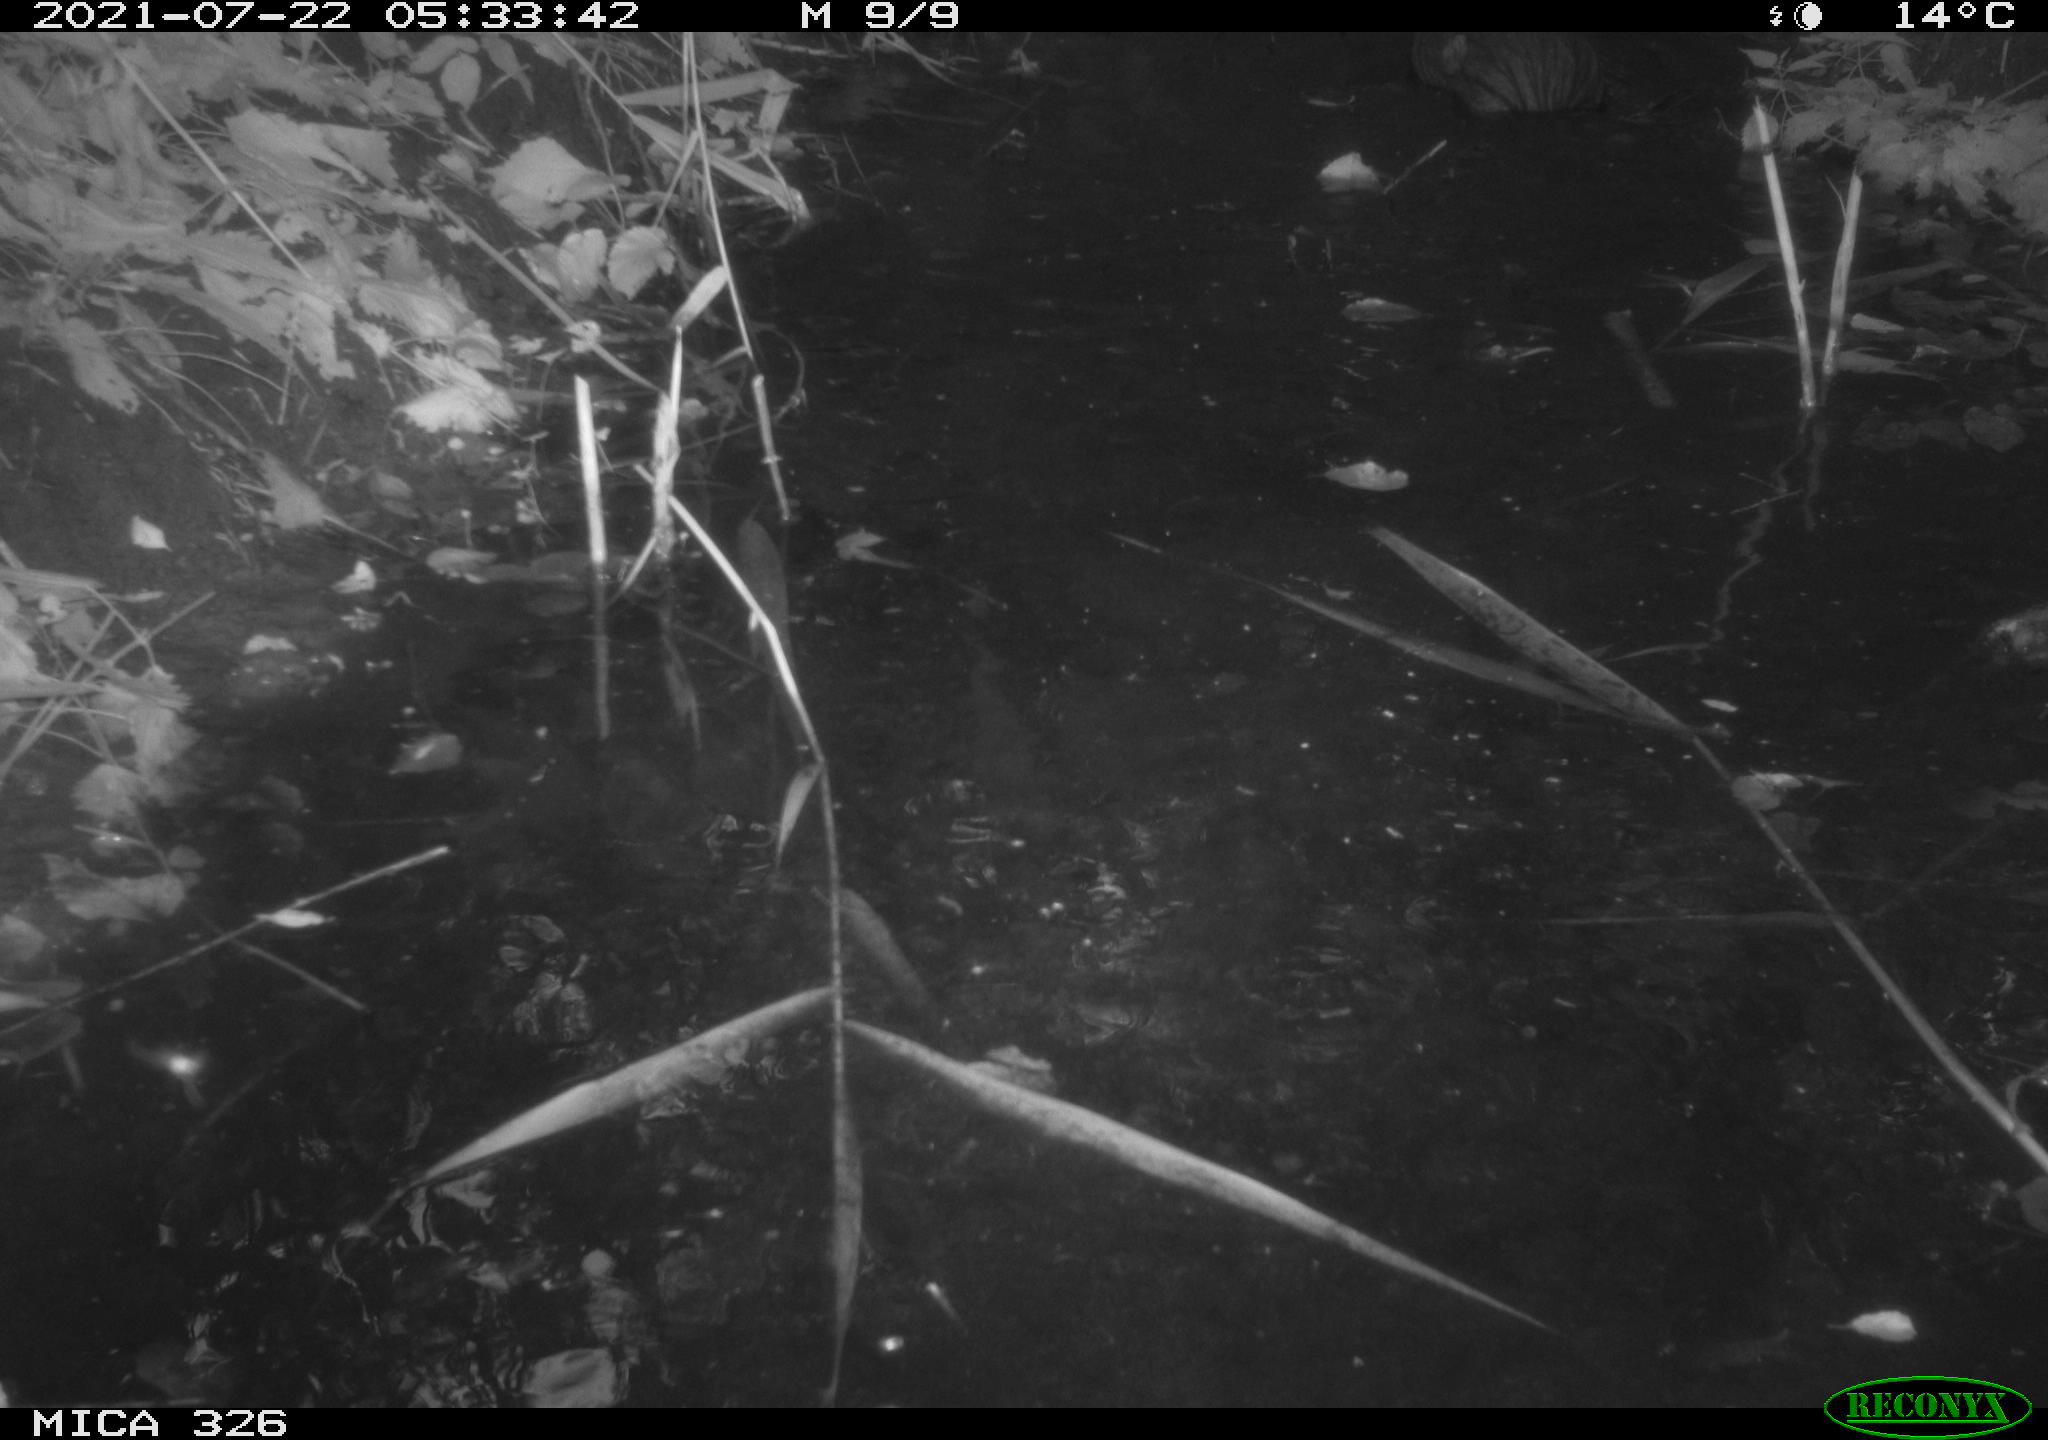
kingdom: Animalia
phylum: Chordata
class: Mammalia
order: Rodentia
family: Myocastoridae
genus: Myocastor
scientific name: Myocastor coypus
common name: Coypu
